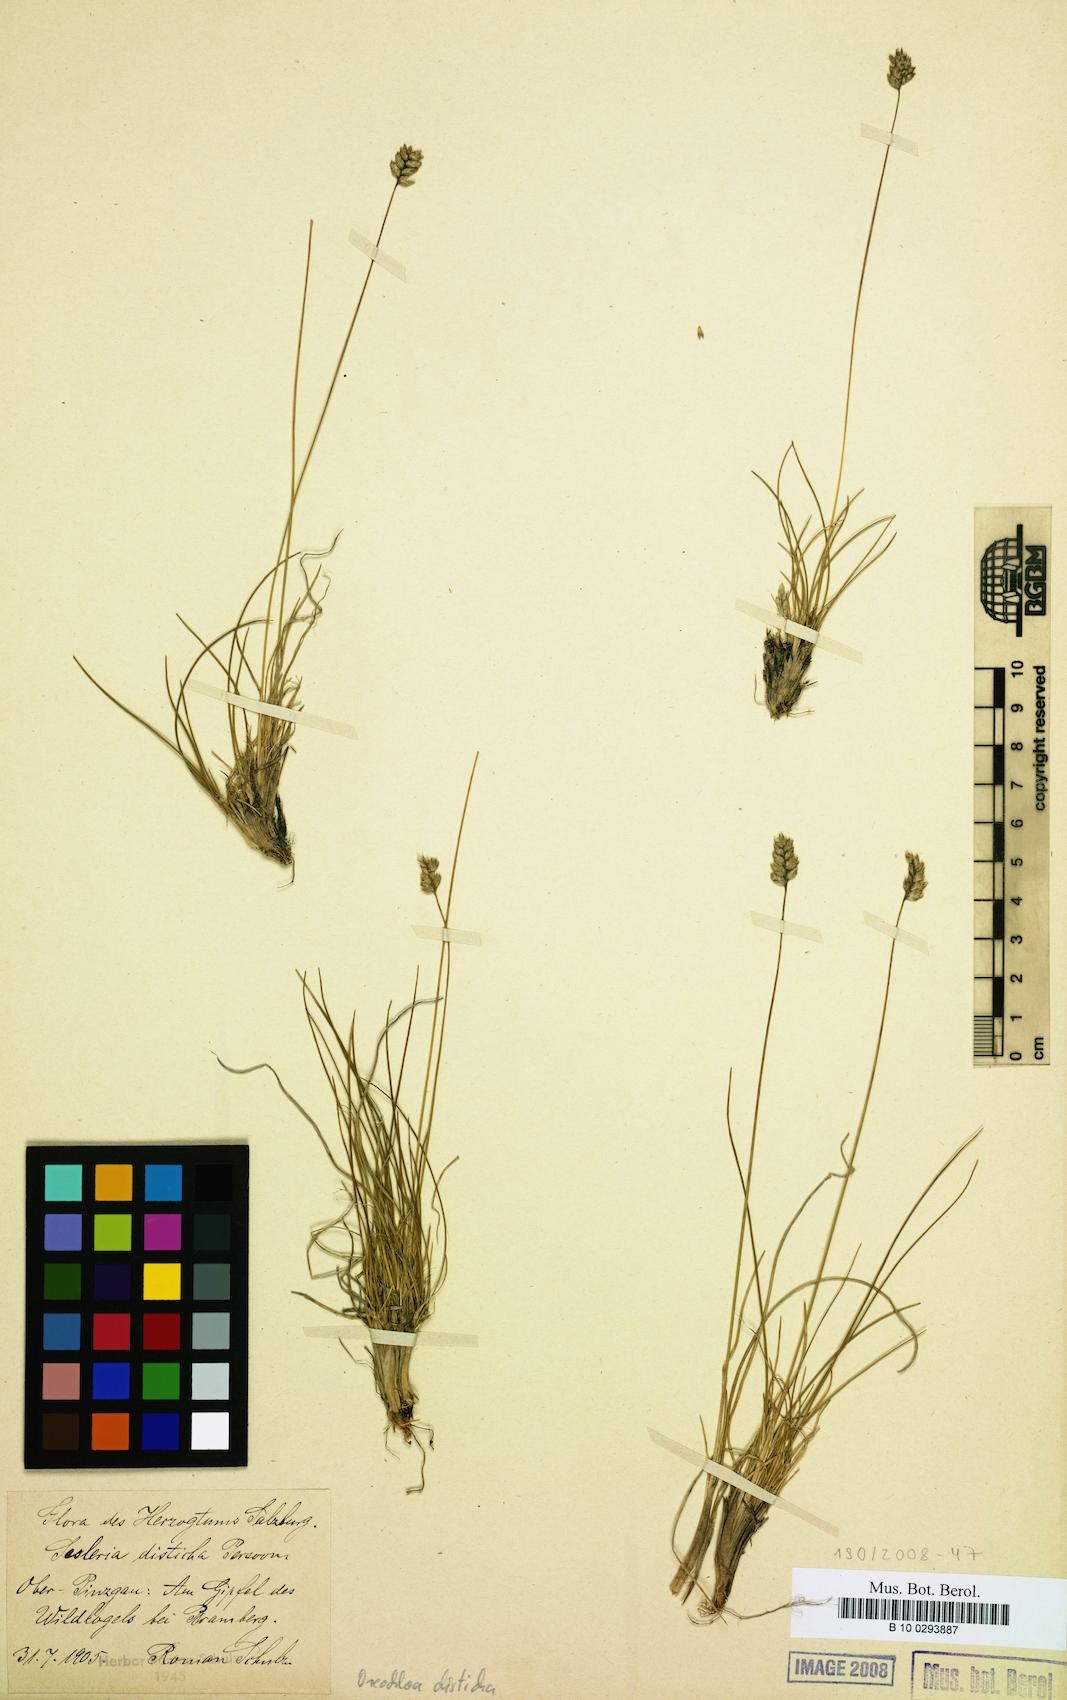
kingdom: Plantae
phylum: Tracheophyta
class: Liliopsida
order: Poales
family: Poaceae
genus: Oreochloa
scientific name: Oreochloa disticha
